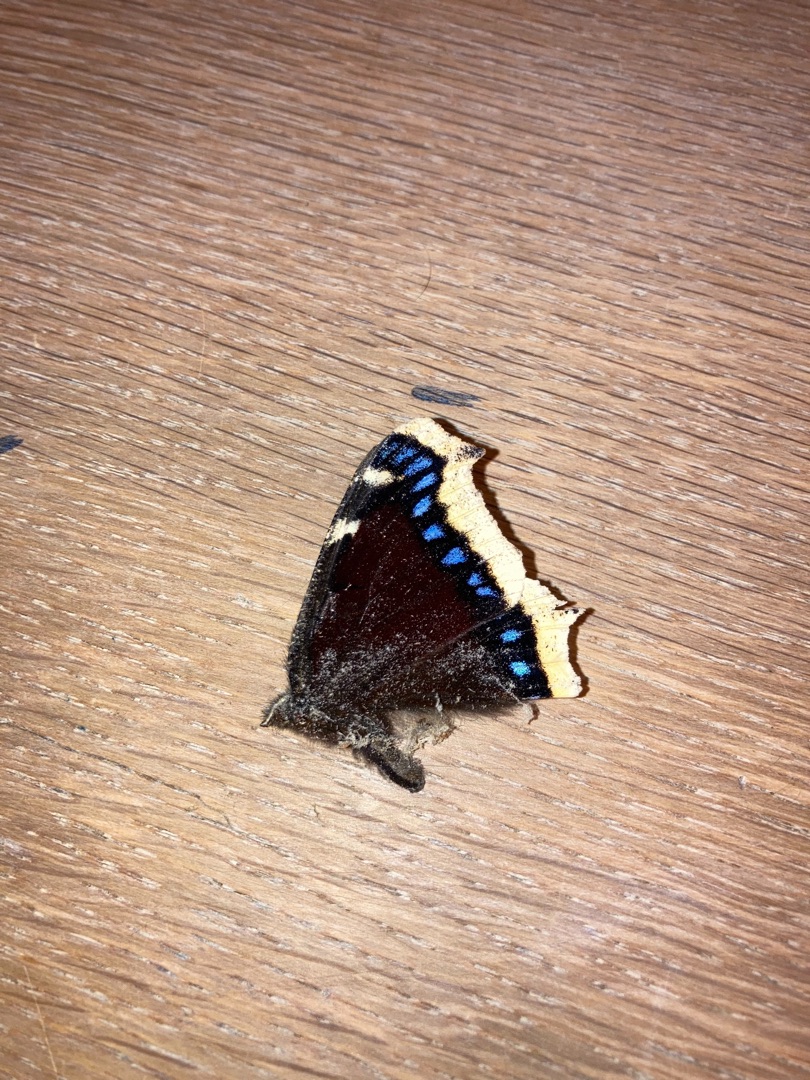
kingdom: Animalia
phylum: Arthropoda
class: Insecta
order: Lepidoptera
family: Nymphalidae
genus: Nymphalis
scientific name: Nymphalis antiopa
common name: Sørgekåbe
